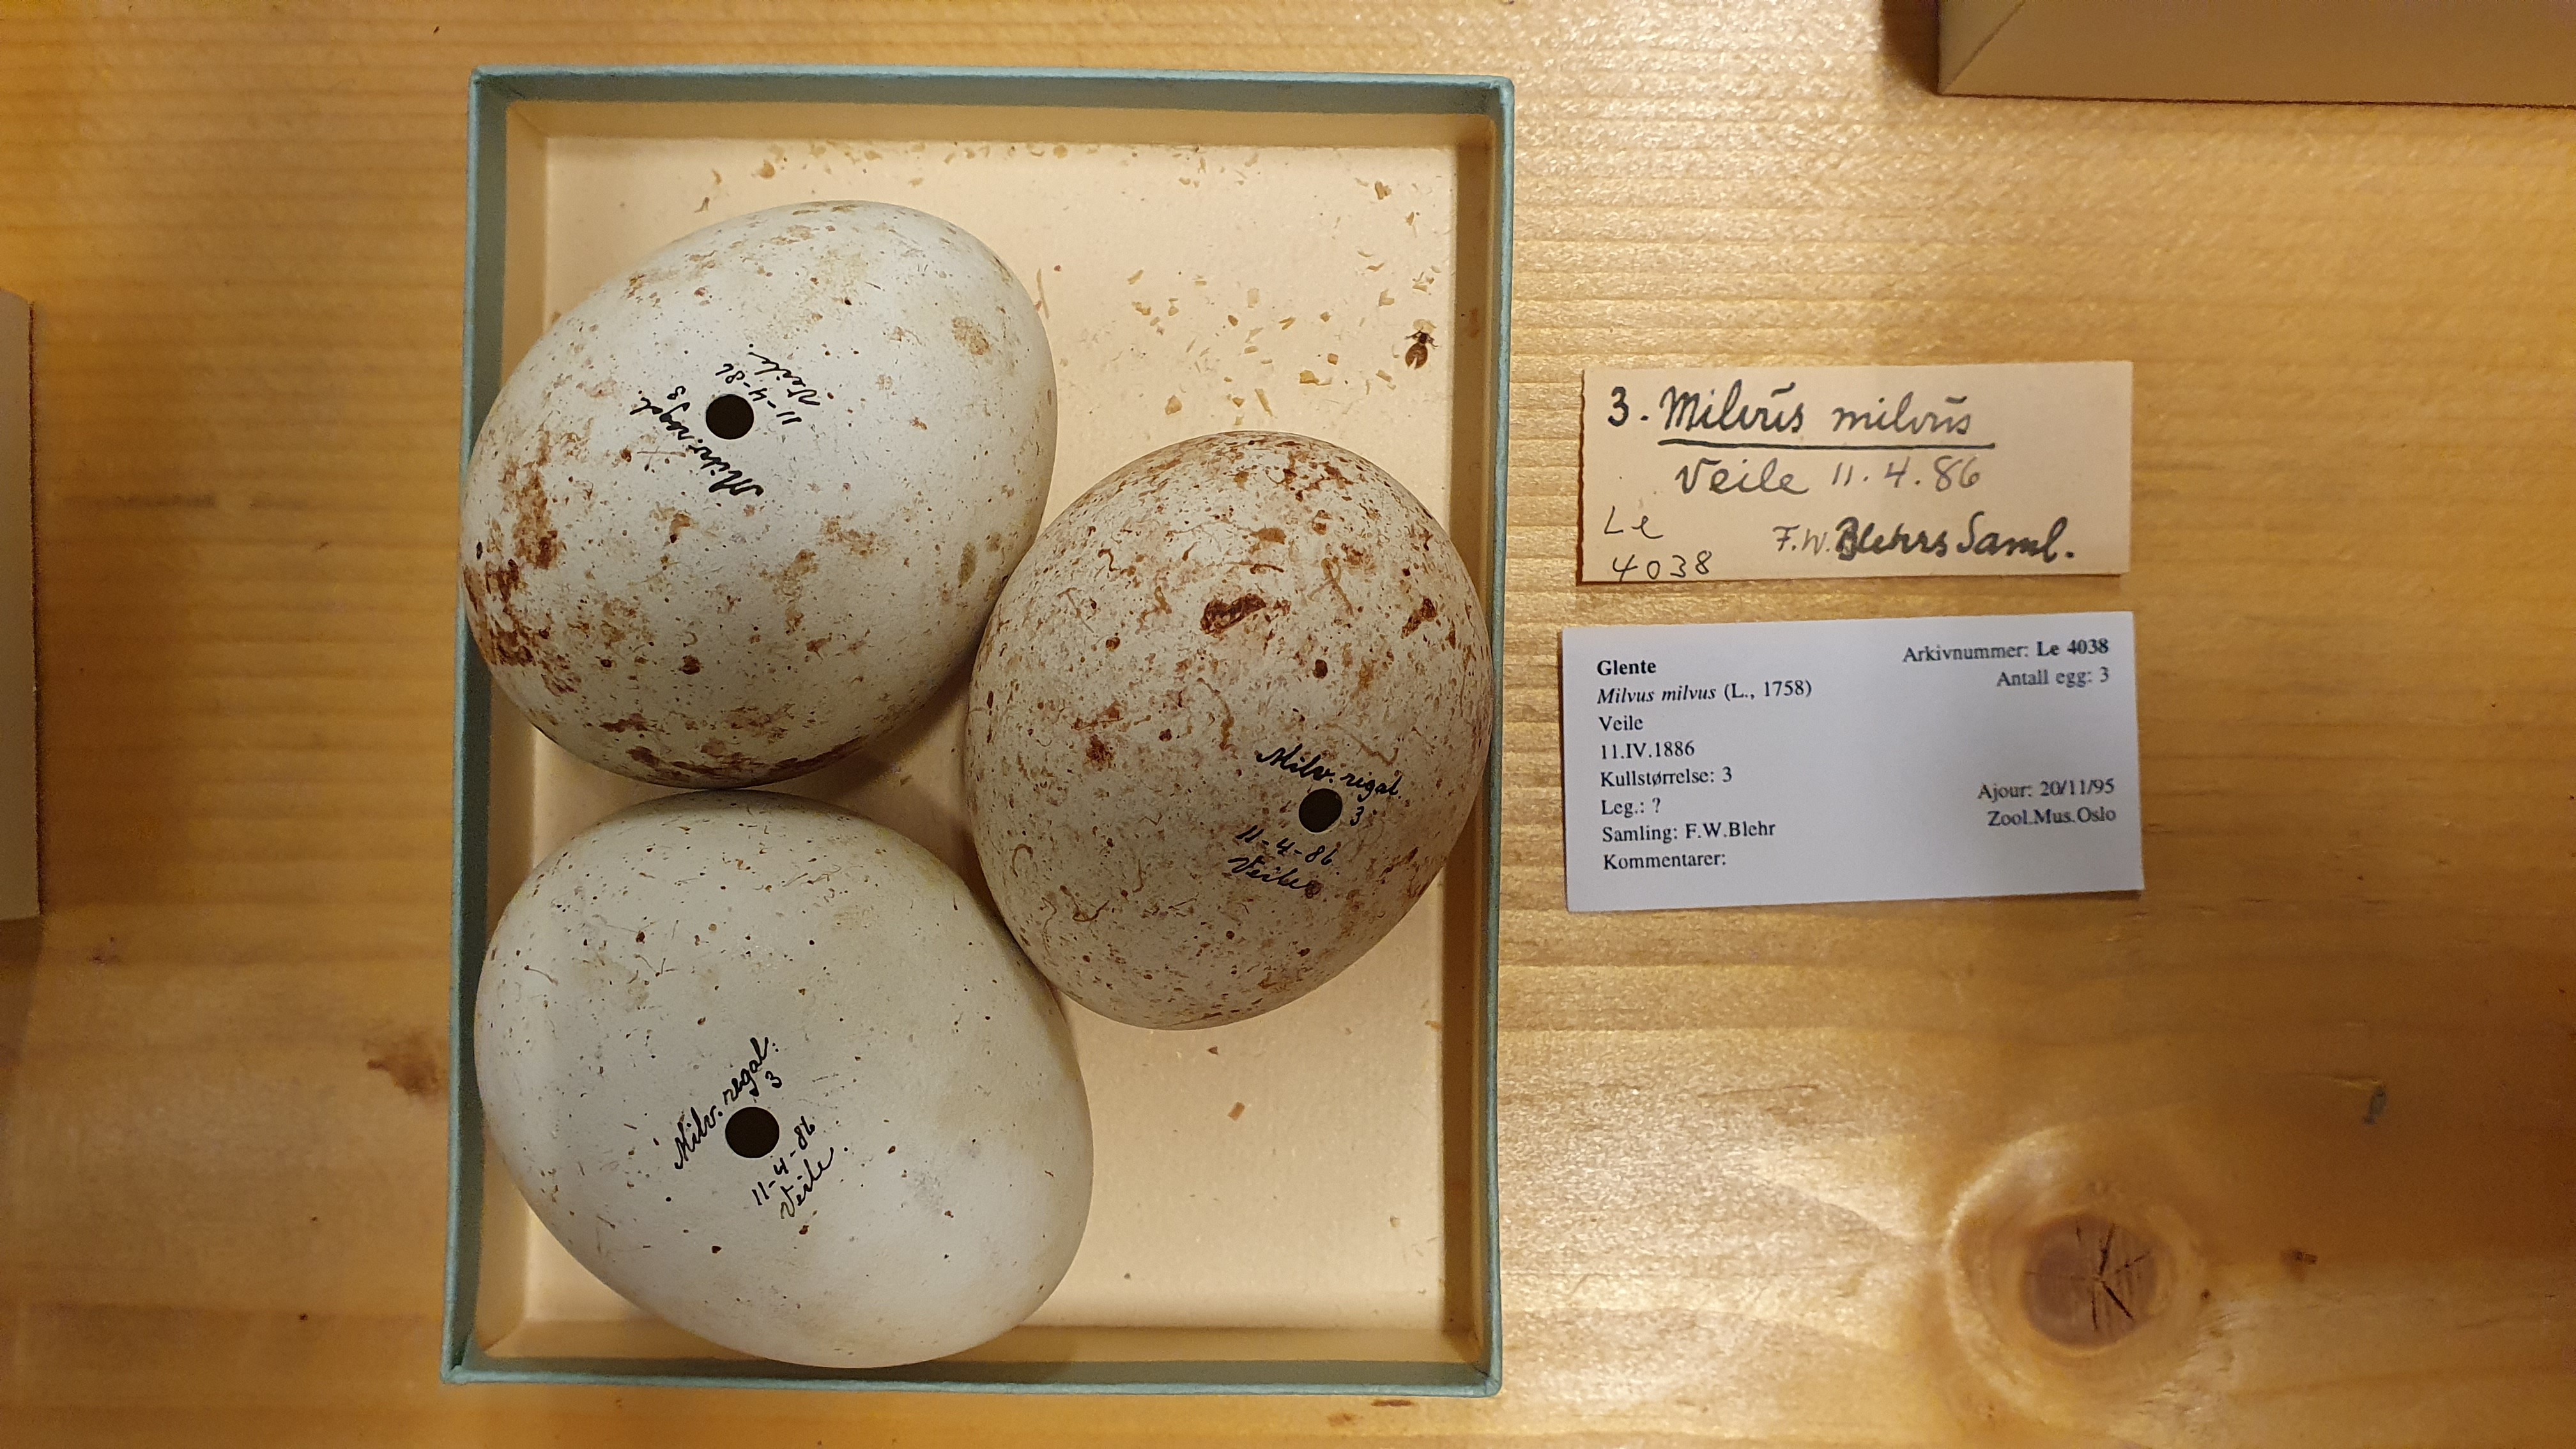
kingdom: Animalia
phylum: Chordata
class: Aves
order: Accipitriformes
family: Accipitridae
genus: Milvus
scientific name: Milvus milvus
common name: Red kite
